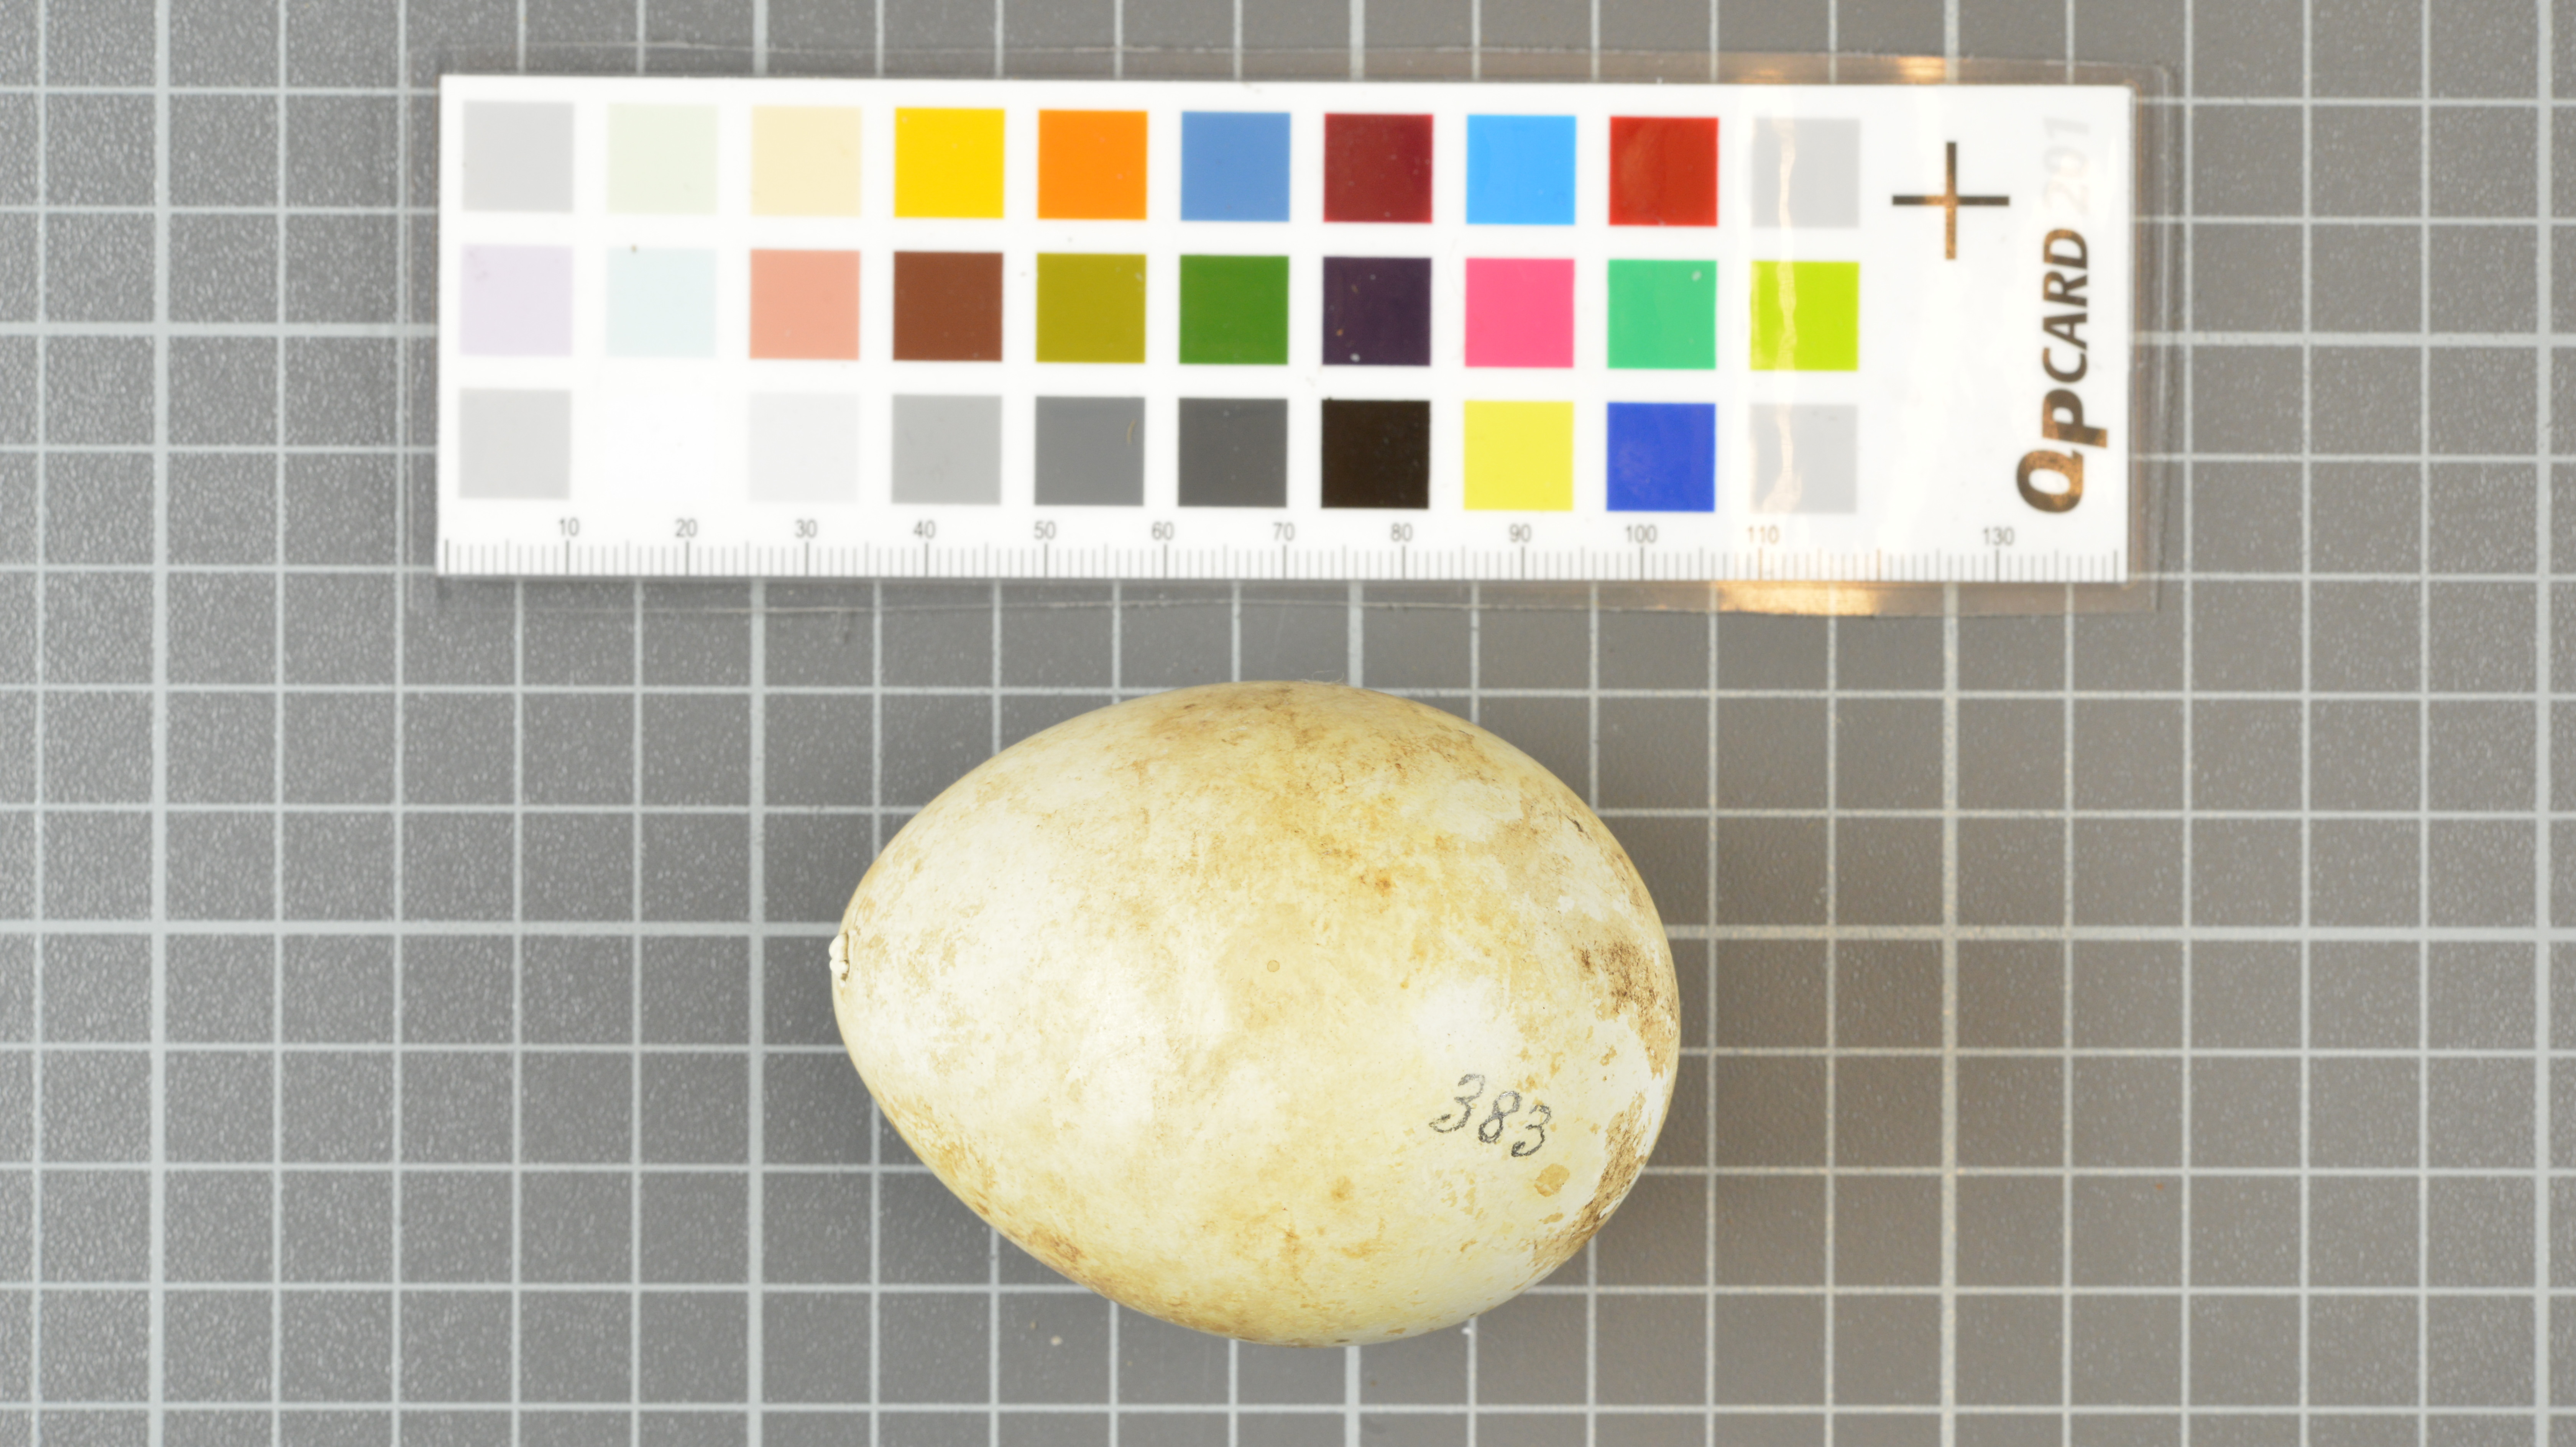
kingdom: Animalia
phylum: Chordata
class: Aves
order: Sphenisciformes
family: Spheniscidae
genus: Eudyptes
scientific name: Eudyptes moseleyi
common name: Northern rockhopper penguin
